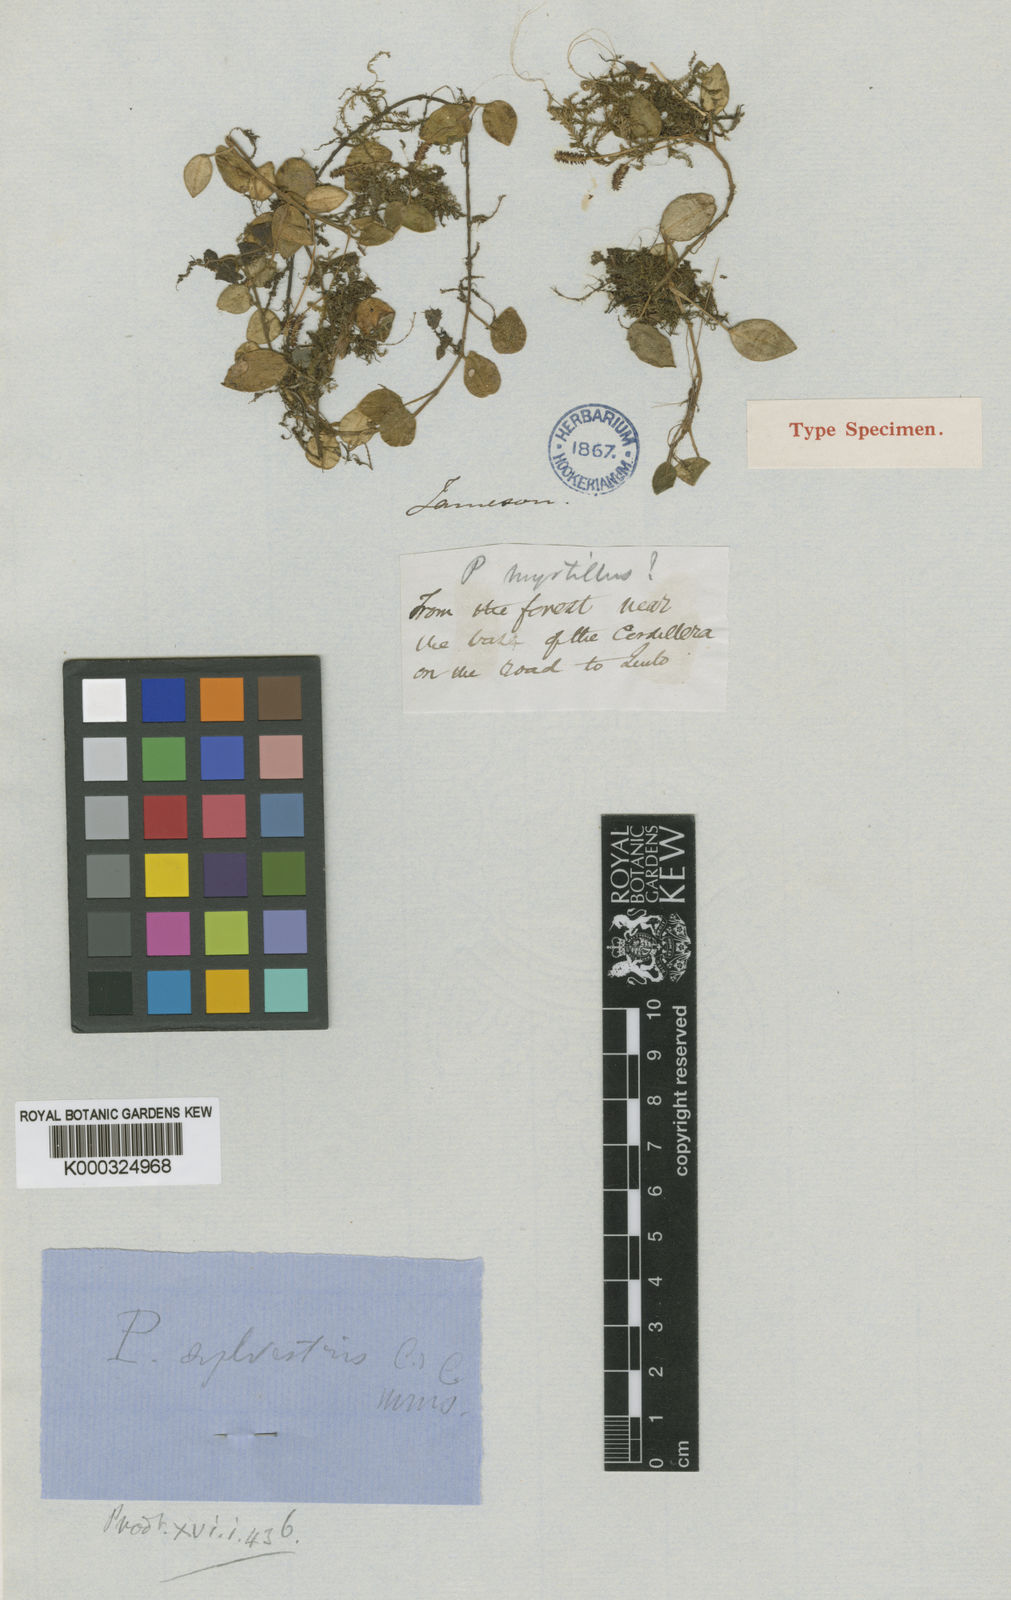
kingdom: Plantae
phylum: Tracheophyta
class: Magnoliopsida
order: Piperales
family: Piperaceae
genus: Peperomia
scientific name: Peperomia sylvestris
